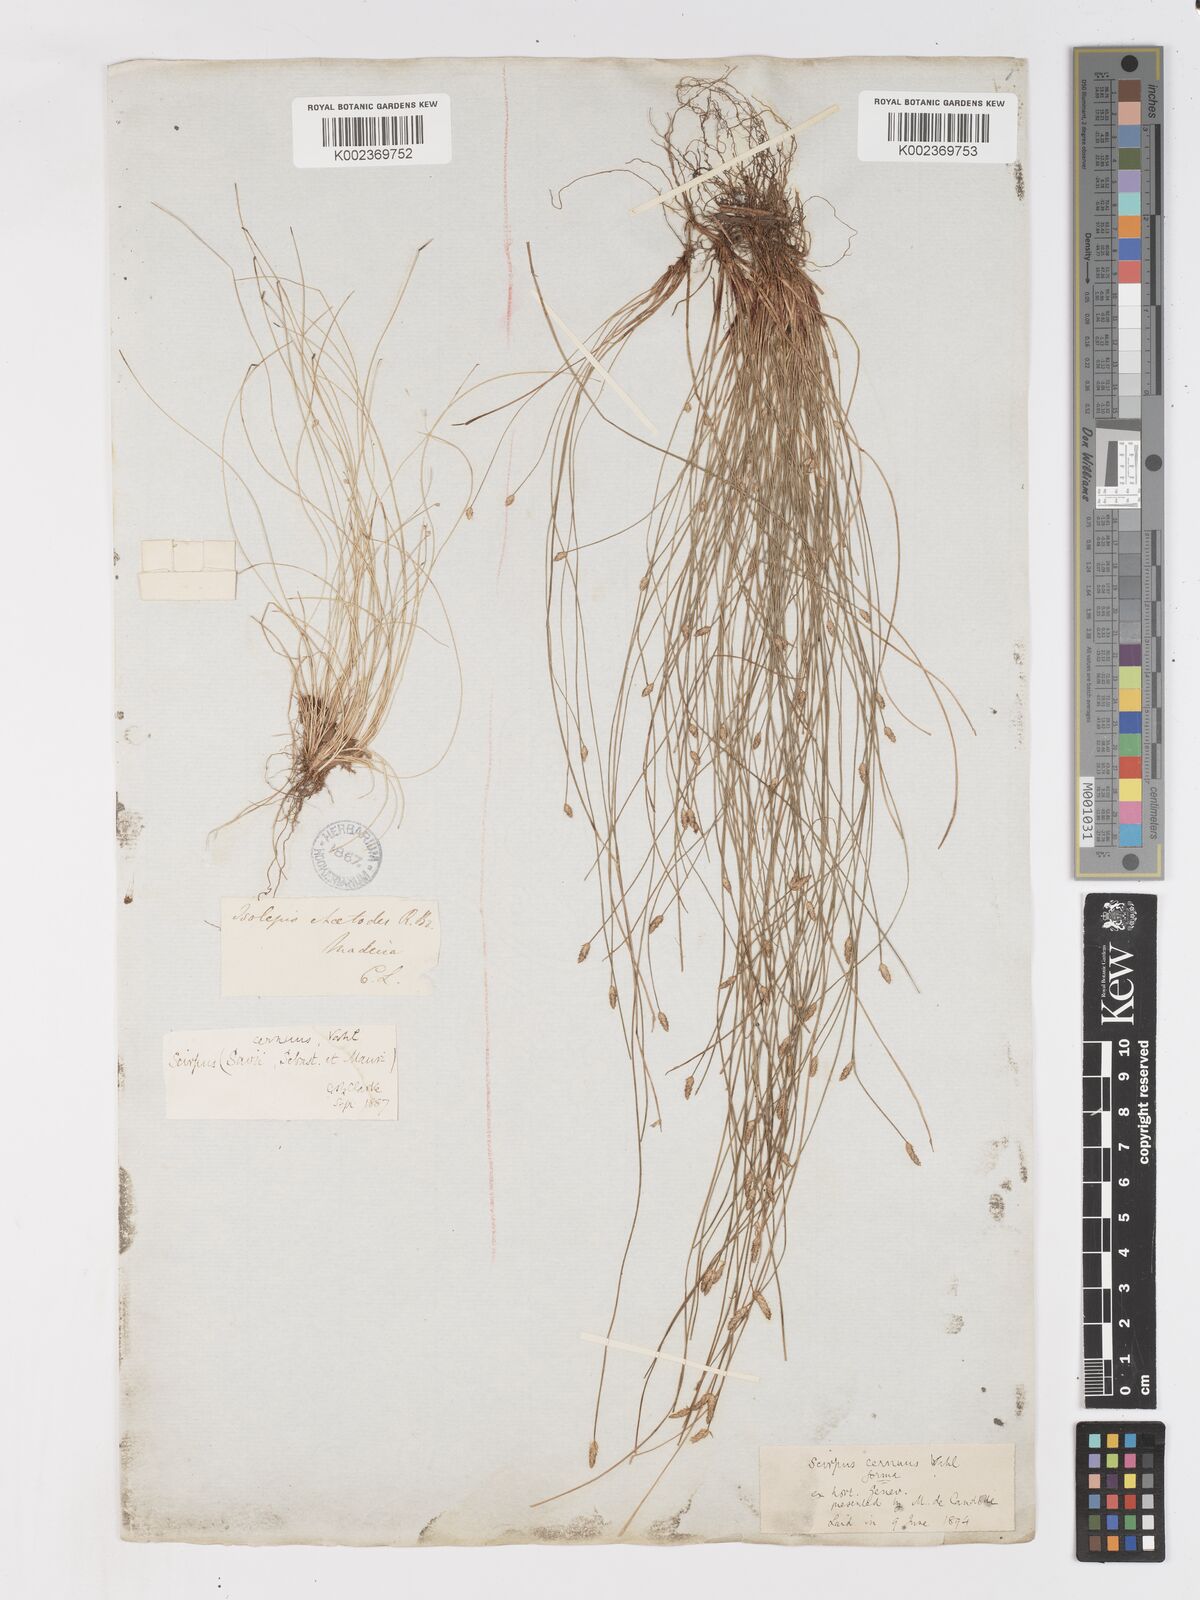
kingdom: Plantae
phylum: Tracheophyta
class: Liliopsida
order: Poales
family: Cyperaceae
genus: Isolepis
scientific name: Isolepis cernua
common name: Slender club-rush
